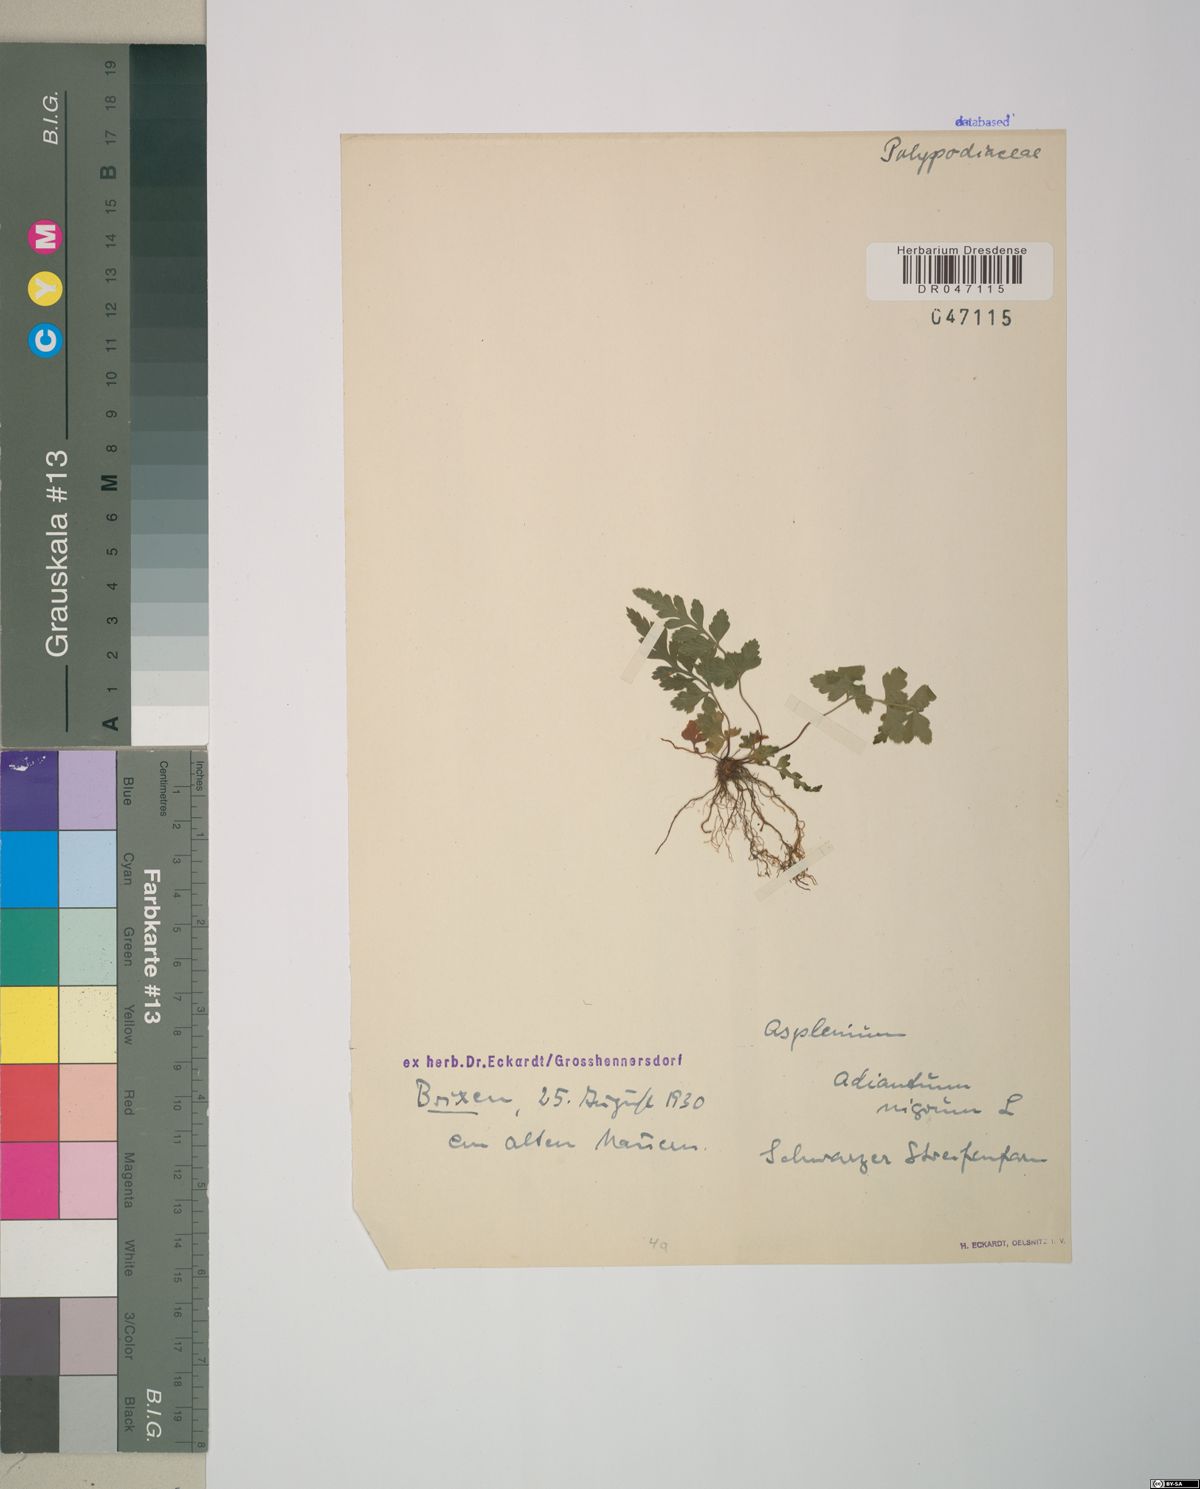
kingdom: Plantae
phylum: Tracheophyta
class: Polypodiopsida
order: Polypodiales
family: Aspleniaceae
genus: Asplenium
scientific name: Asplenium adiantum-nigrum
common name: Black spleenwort
